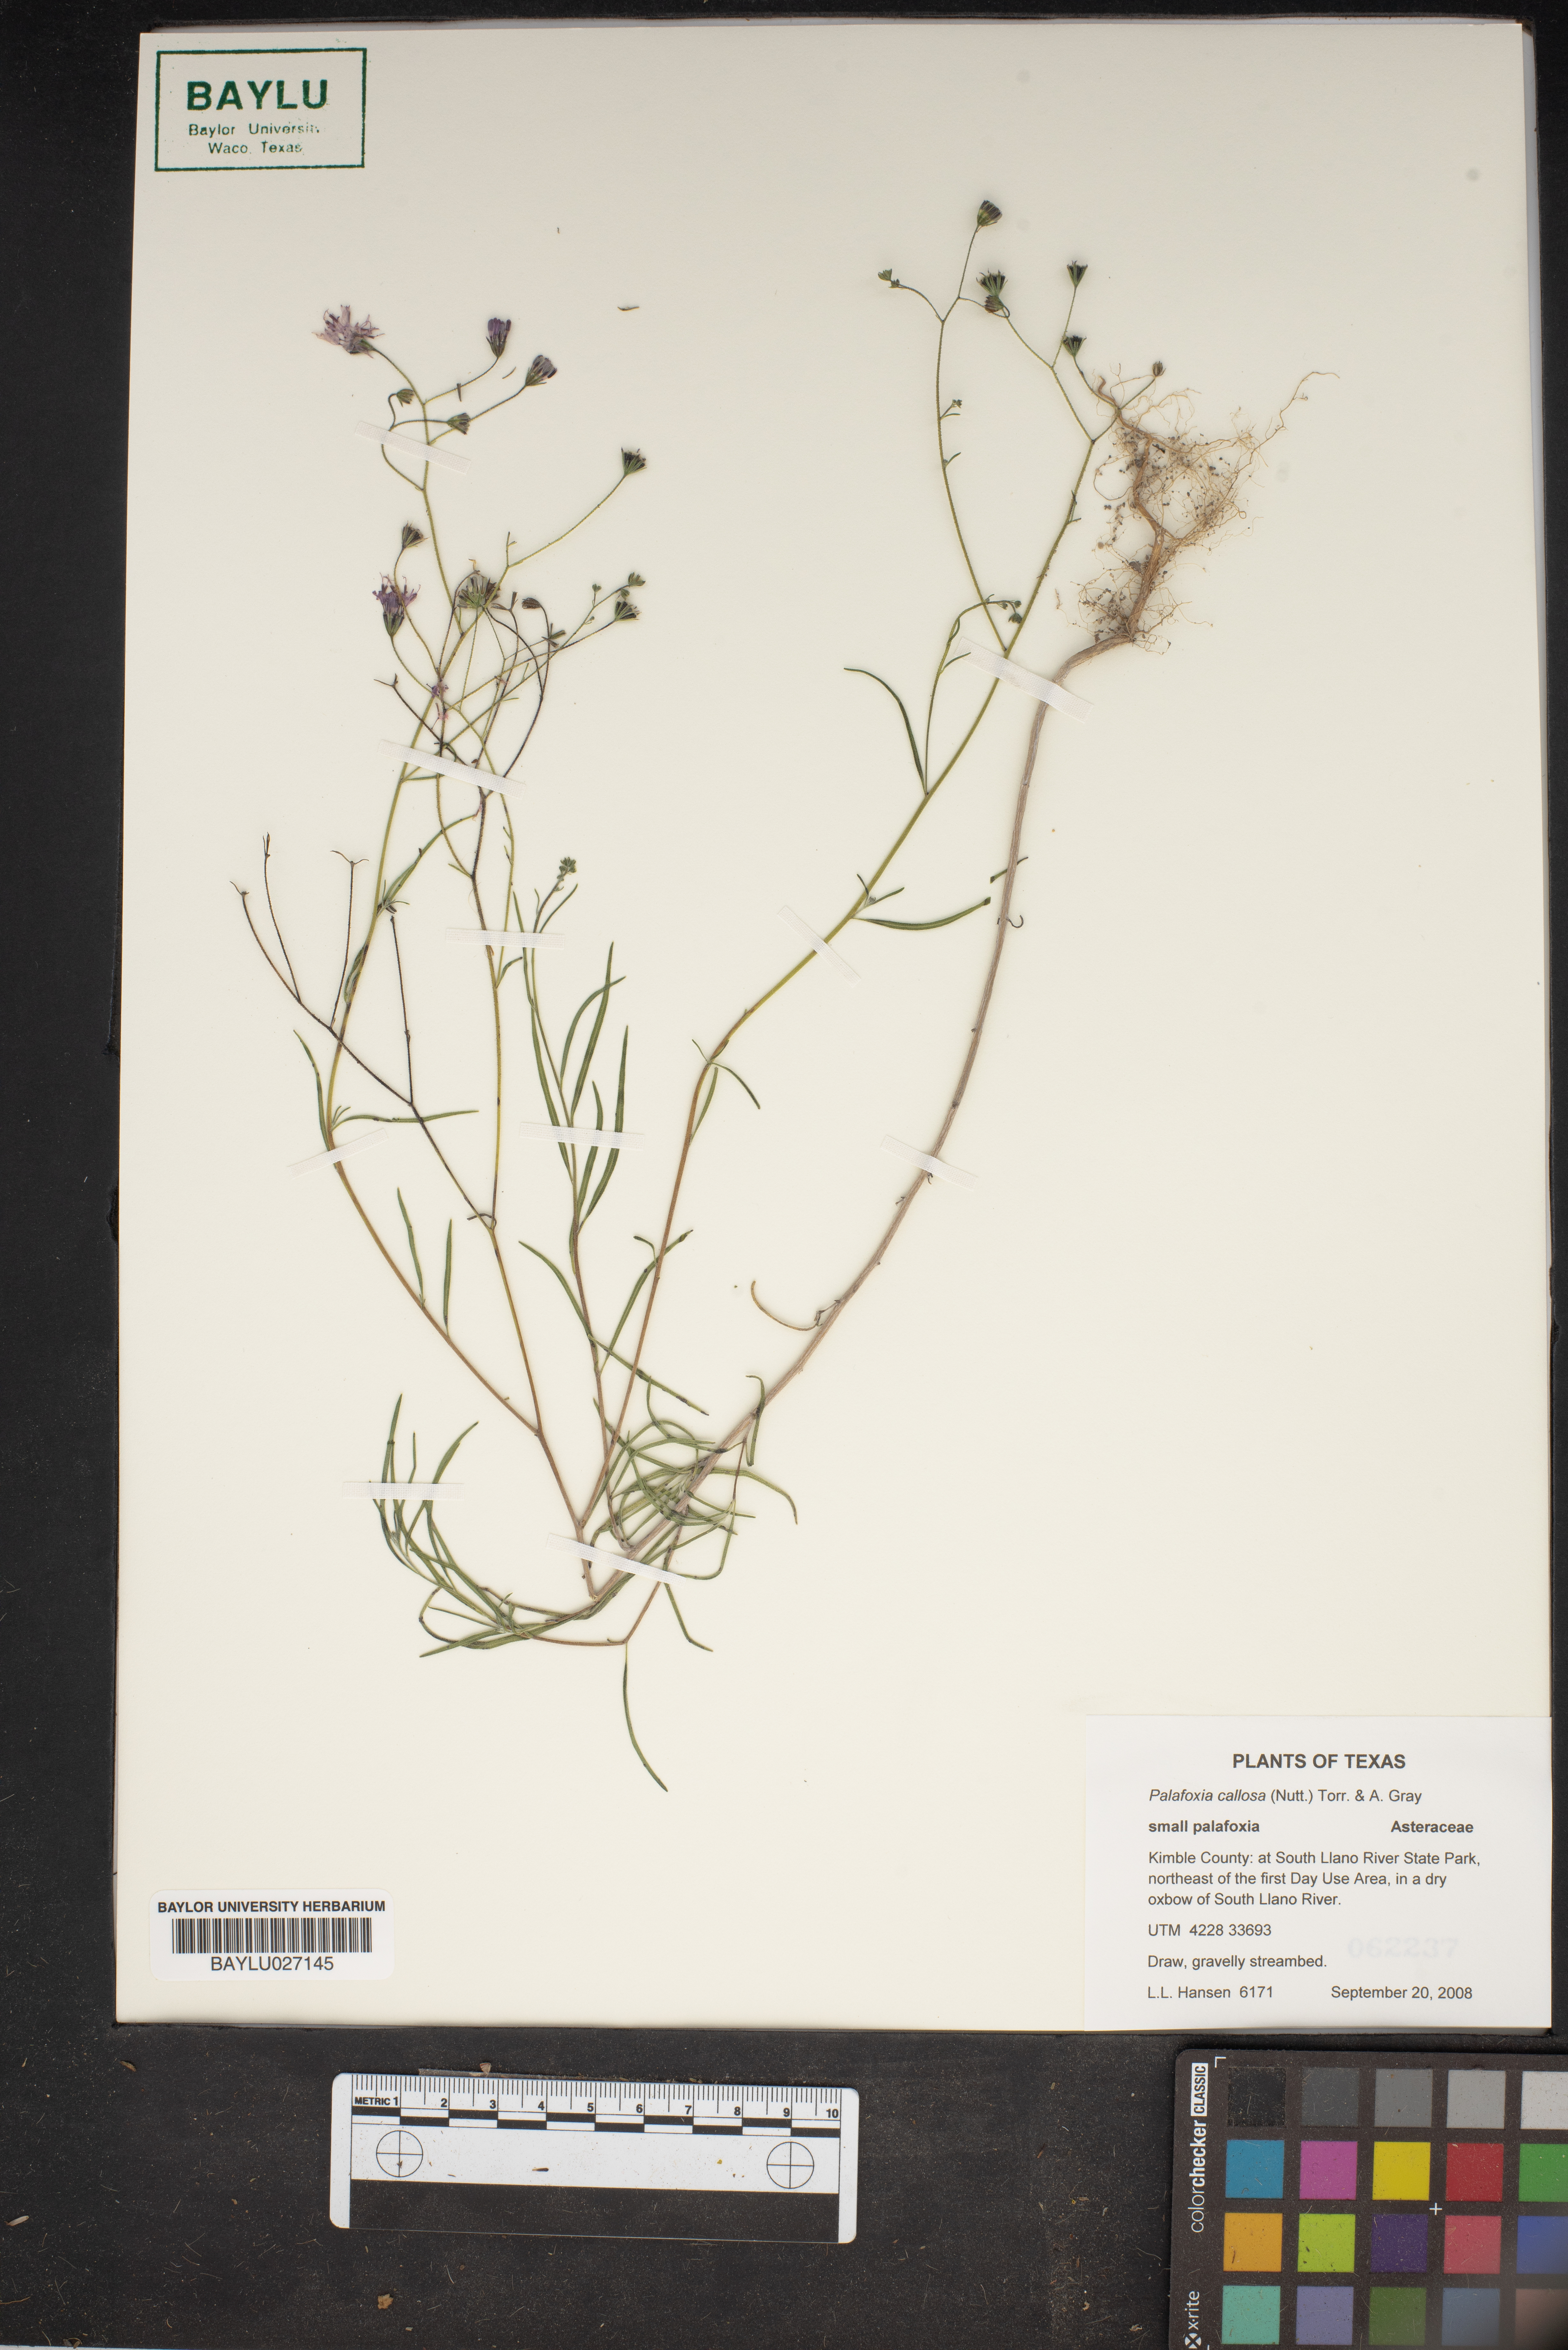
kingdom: Plantae
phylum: Tracheophyta
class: Magnoliopsida
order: Asterales
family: Asteraceae
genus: Palafoxia
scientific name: Palafoxia callosa
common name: Small palafox
